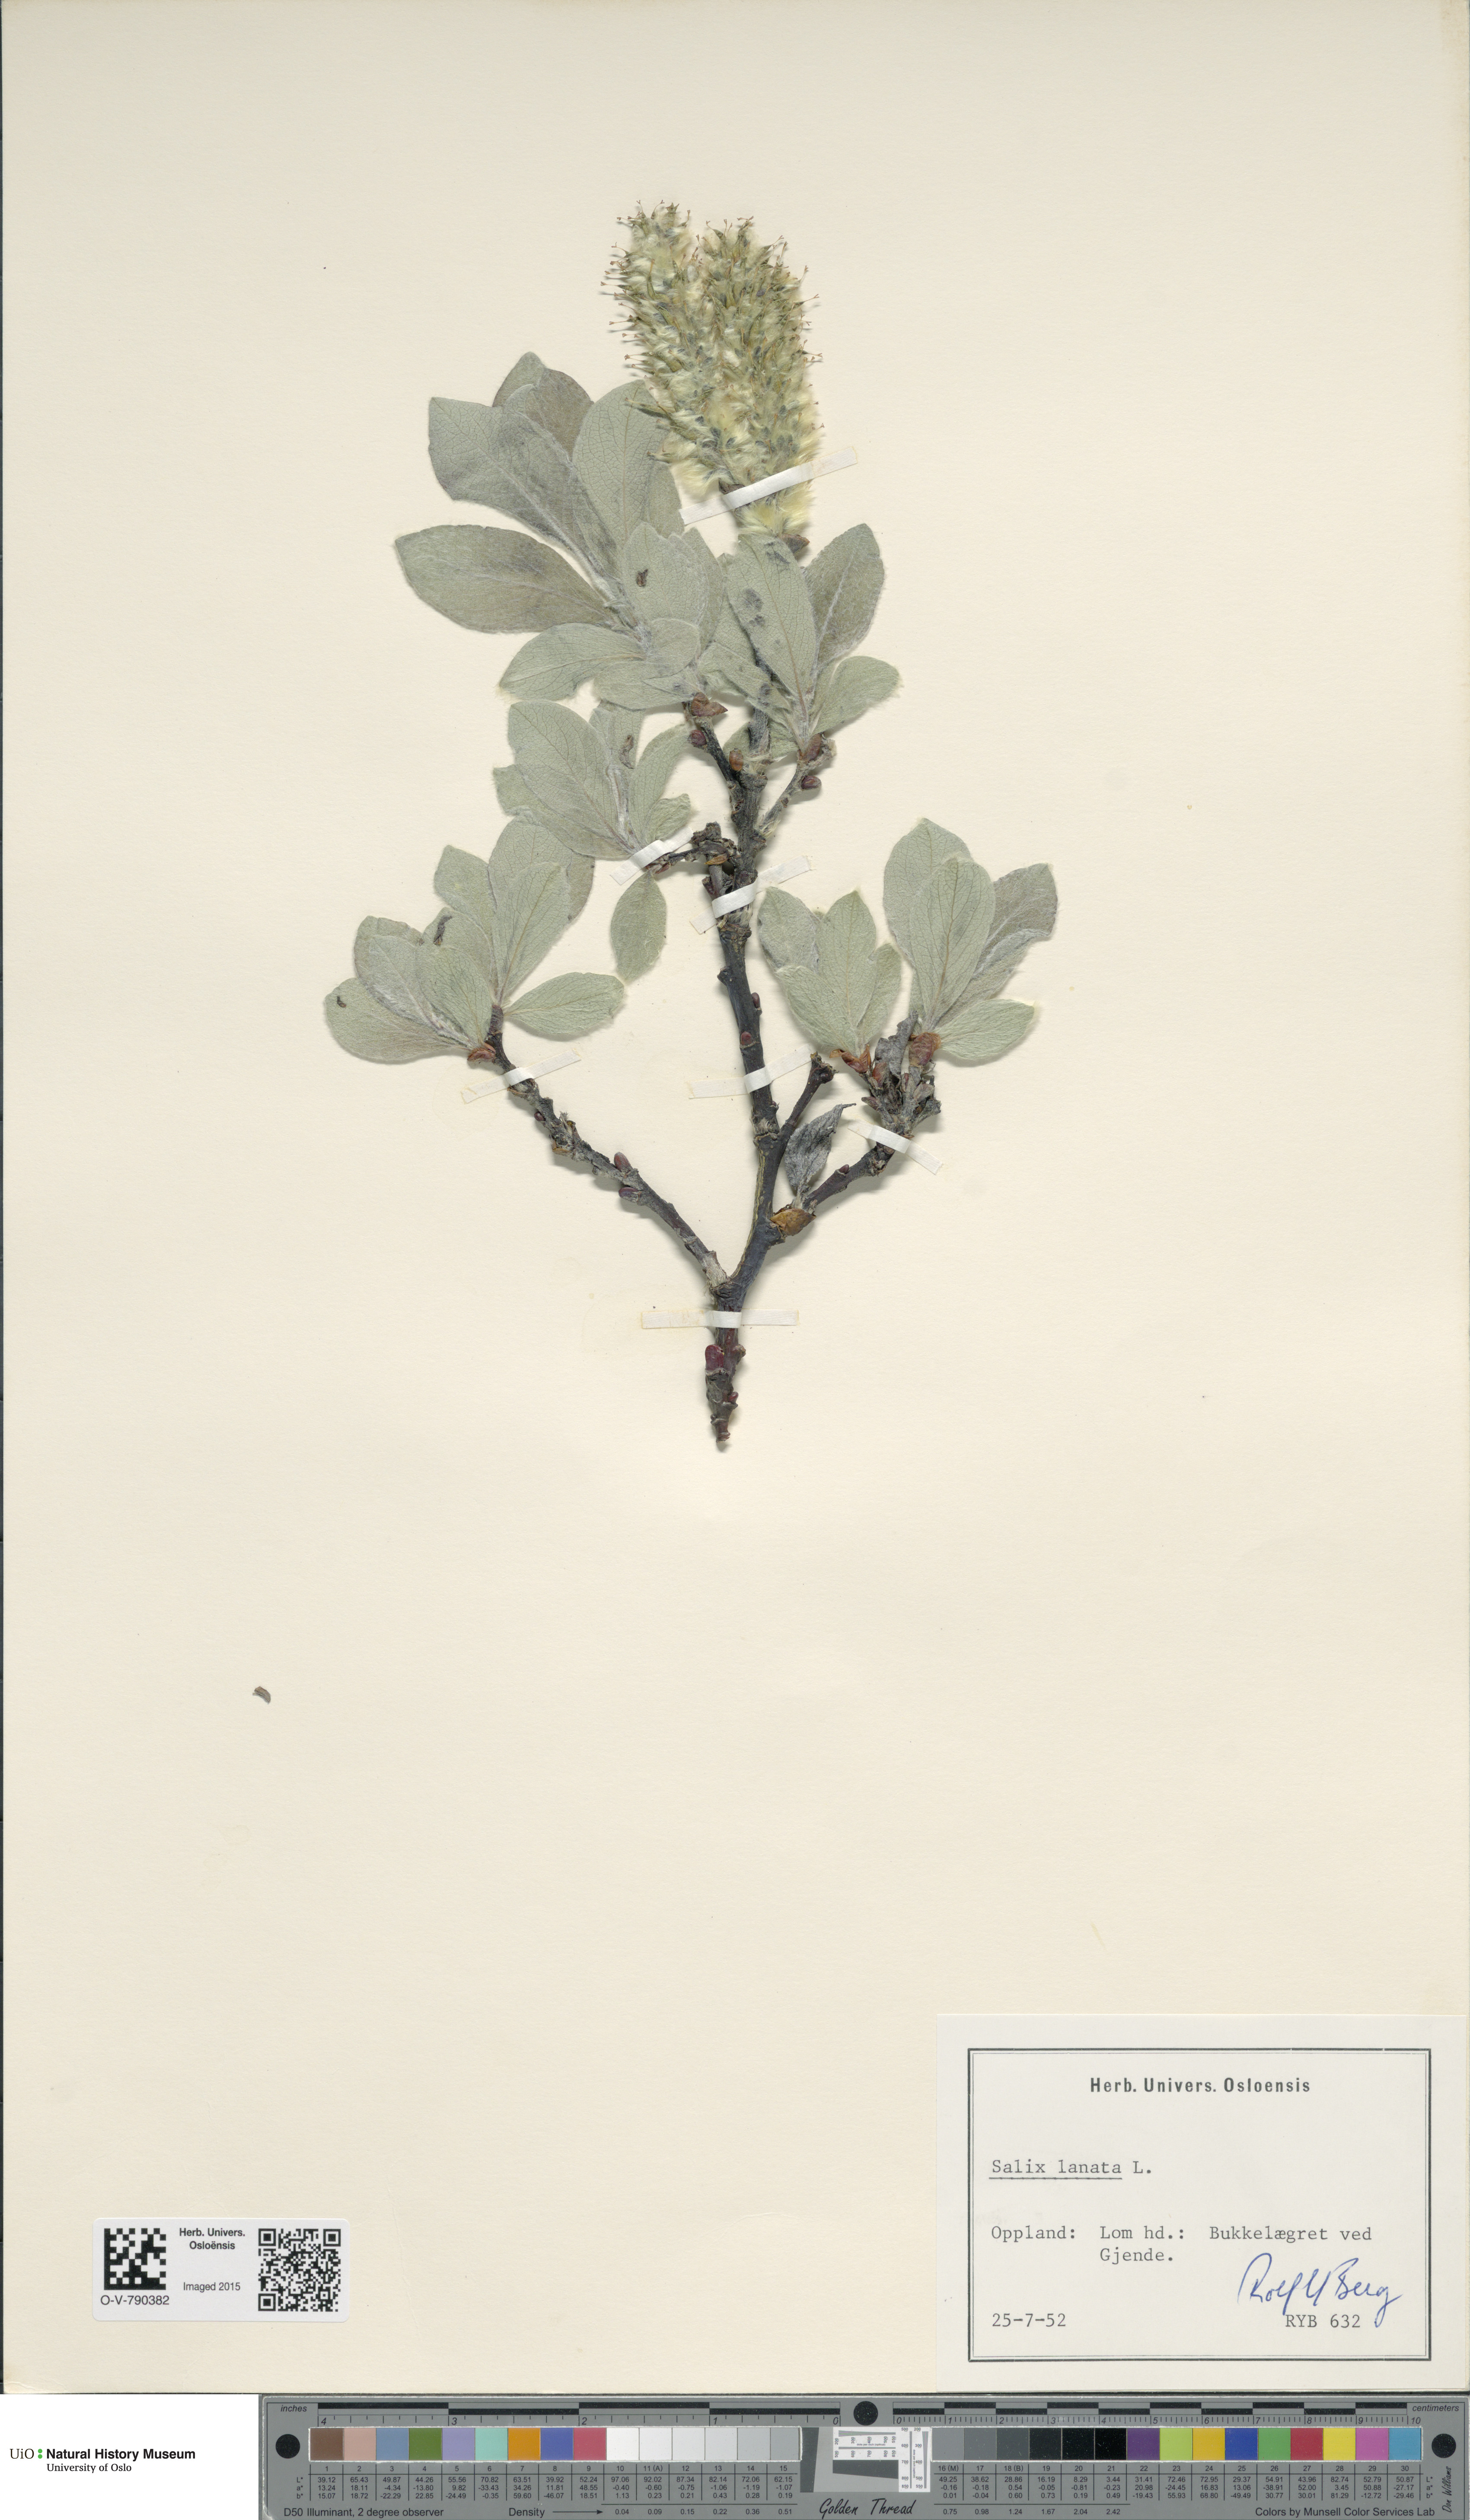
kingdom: Plantae
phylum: Tracheophyta
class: Magnoliopsida
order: Malpighiales
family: Salicaceae
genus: Salix
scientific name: Salix lanata
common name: Woolly willow
